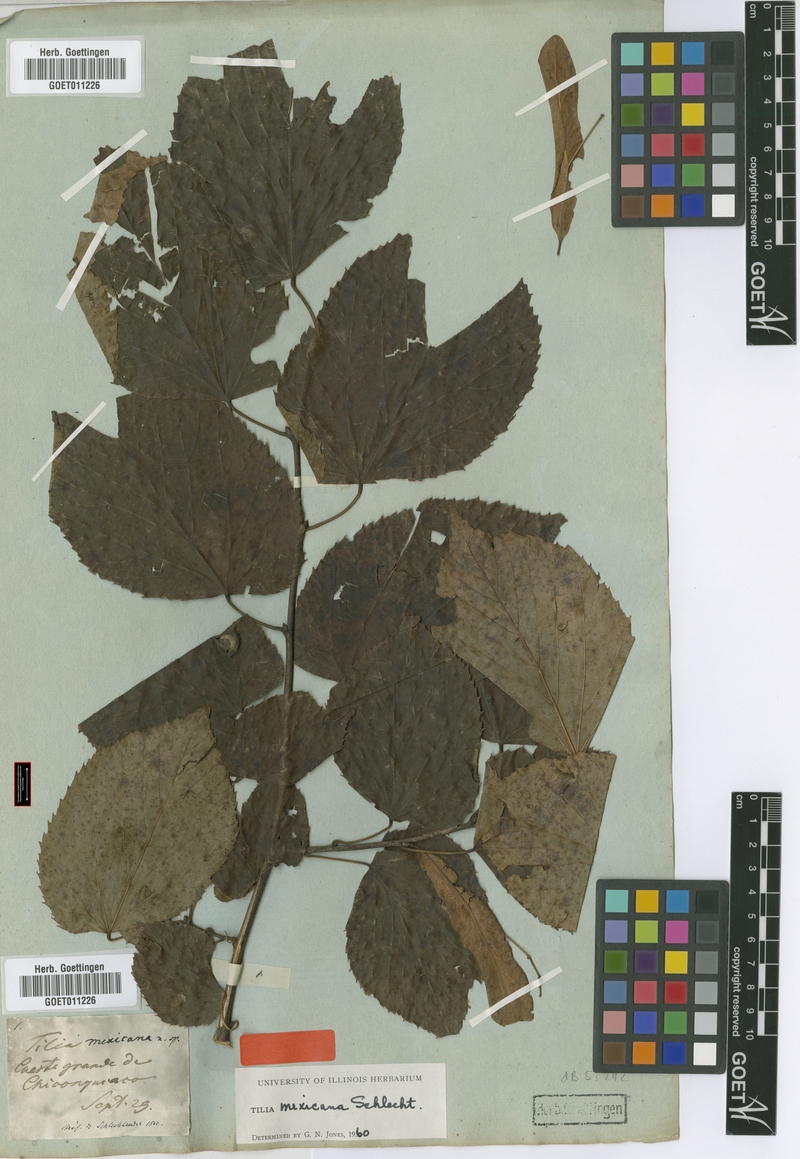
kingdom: Plantae
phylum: Tracheophyta
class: Magnoliopsida
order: Malvales
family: Malvaceae
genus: Tilia
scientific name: Tilia mexicana
